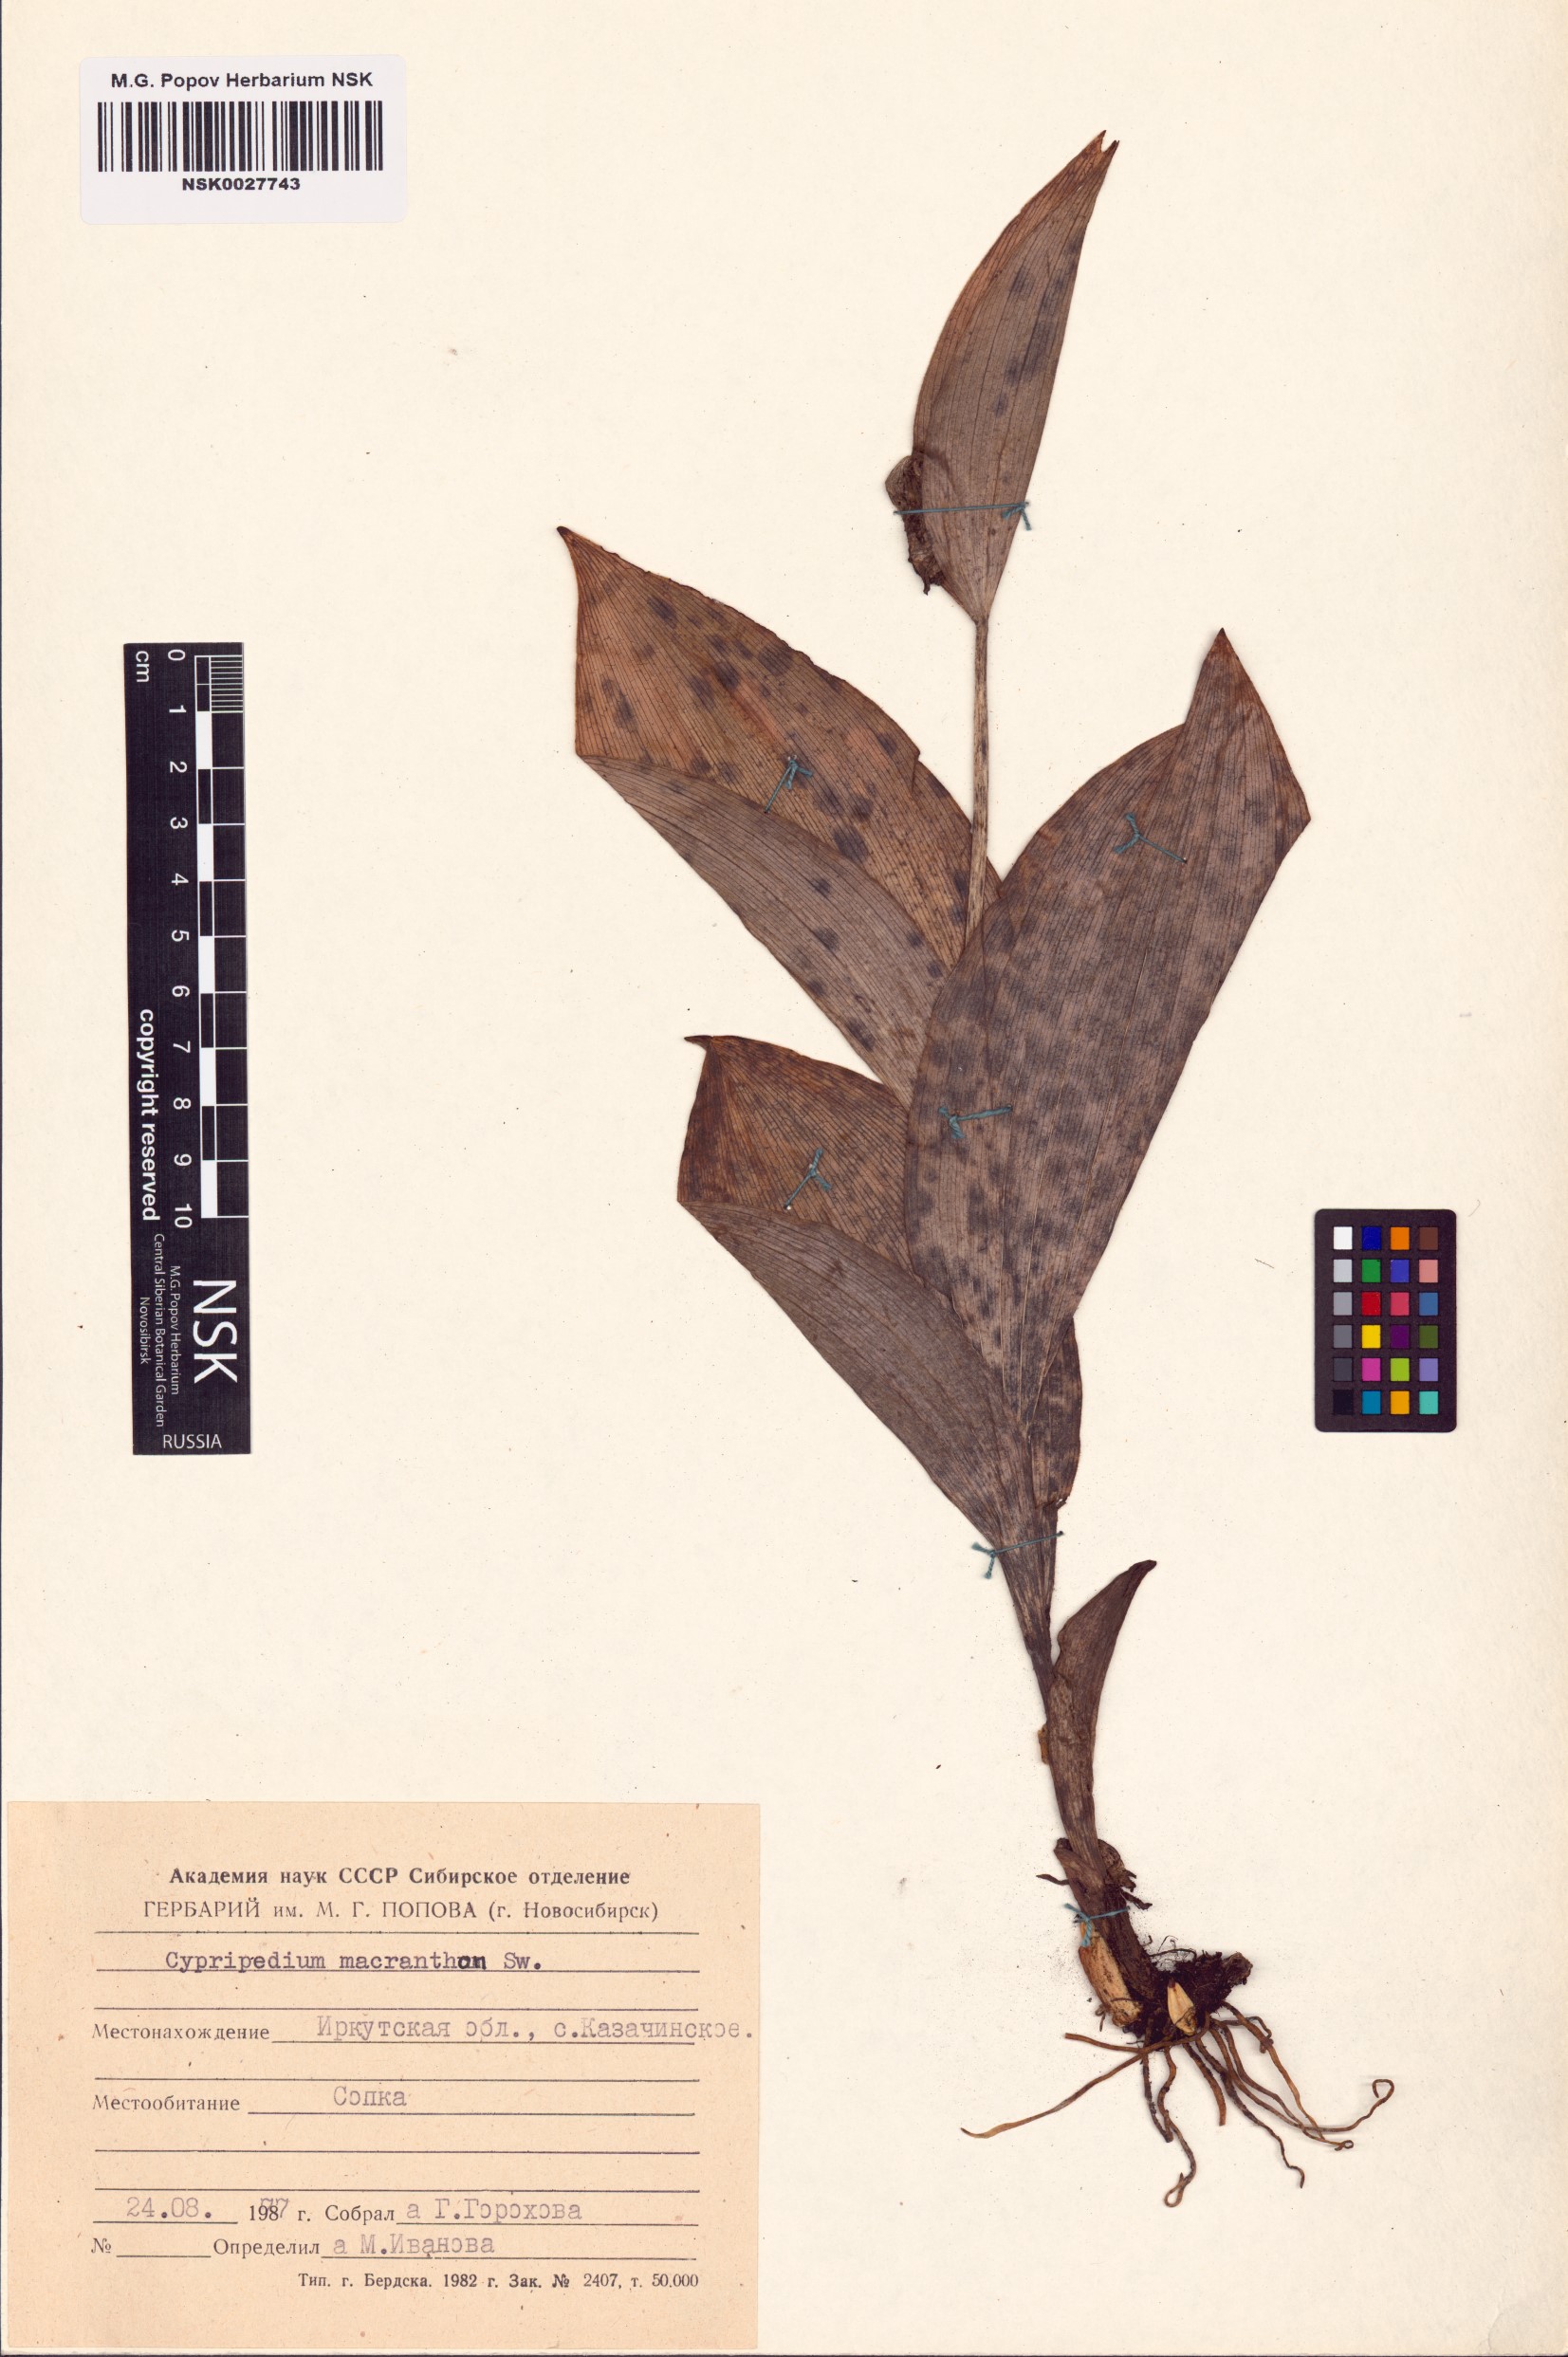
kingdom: Plantae
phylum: Tracheophyta
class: Liliopsida
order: Asparagales
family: Orchidaceae
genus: Cypripedium
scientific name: Cypripedium macranthos
